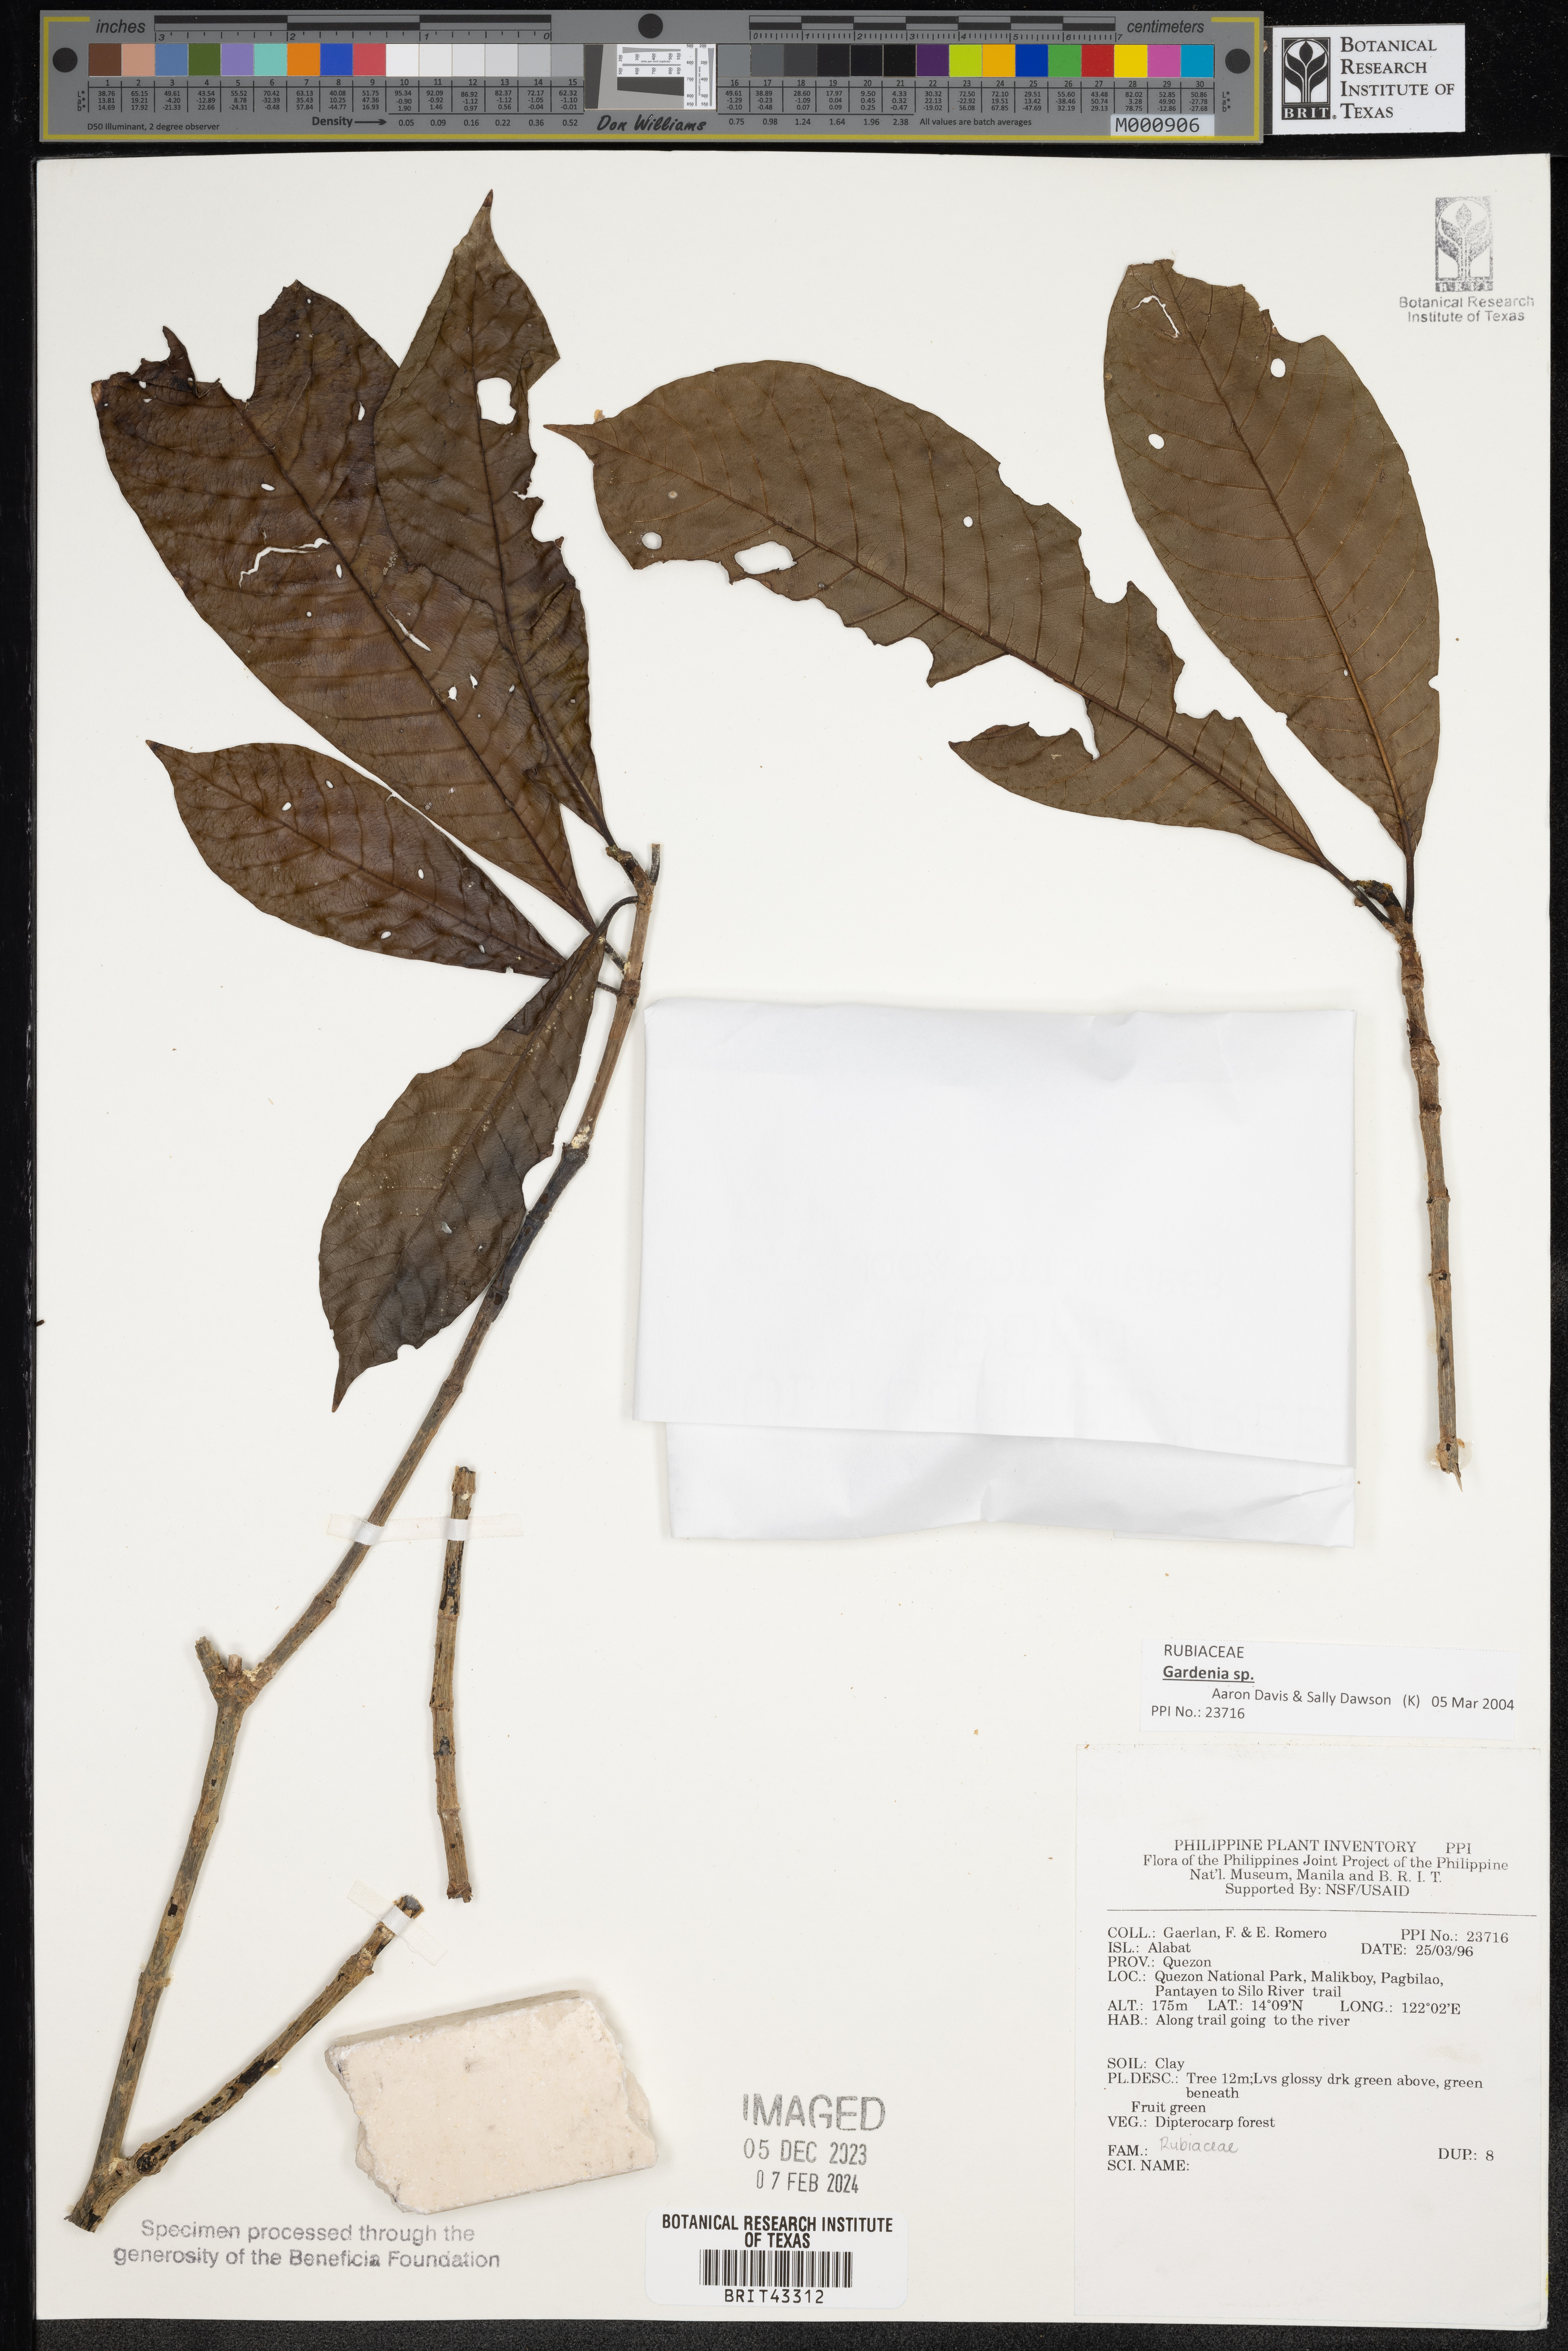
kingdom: Plantae
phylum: Tracheophyta
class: Magnoliopsida
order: Gentianales
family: Rubiaceae
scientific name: Rubiaceae
